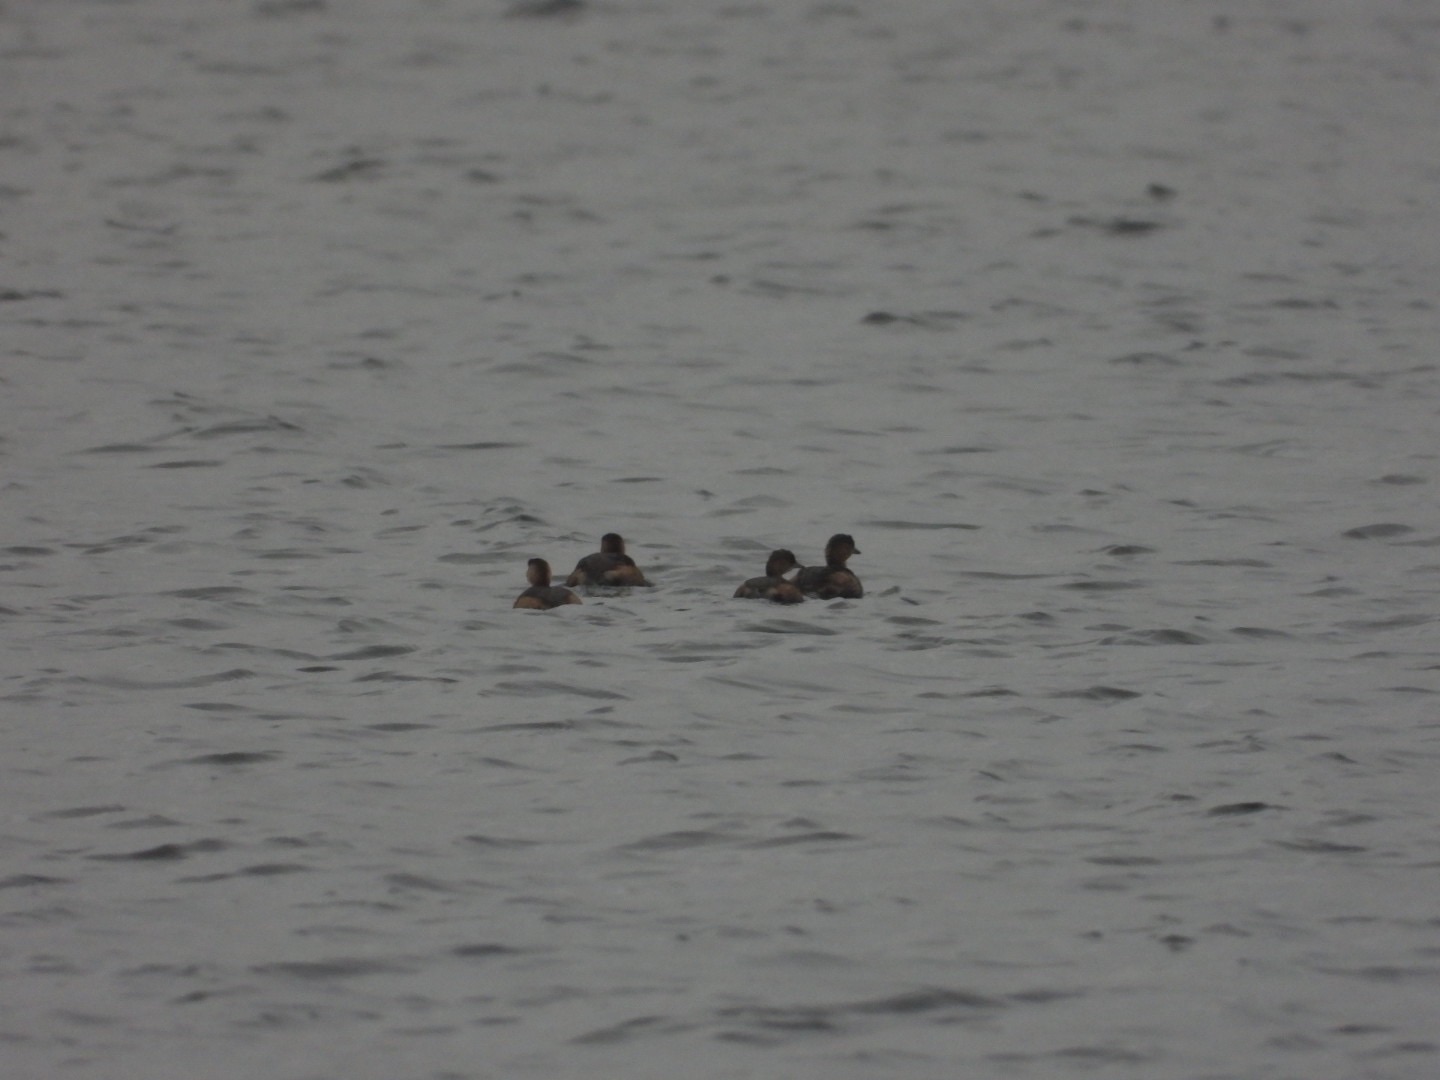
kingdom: Animalia
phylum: Chordata
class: Aves
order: Podicipediformes
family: Podicipedidae
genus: Tachybaptus
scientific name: Tachybaptus ruficollis
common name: Lille lappedykker
